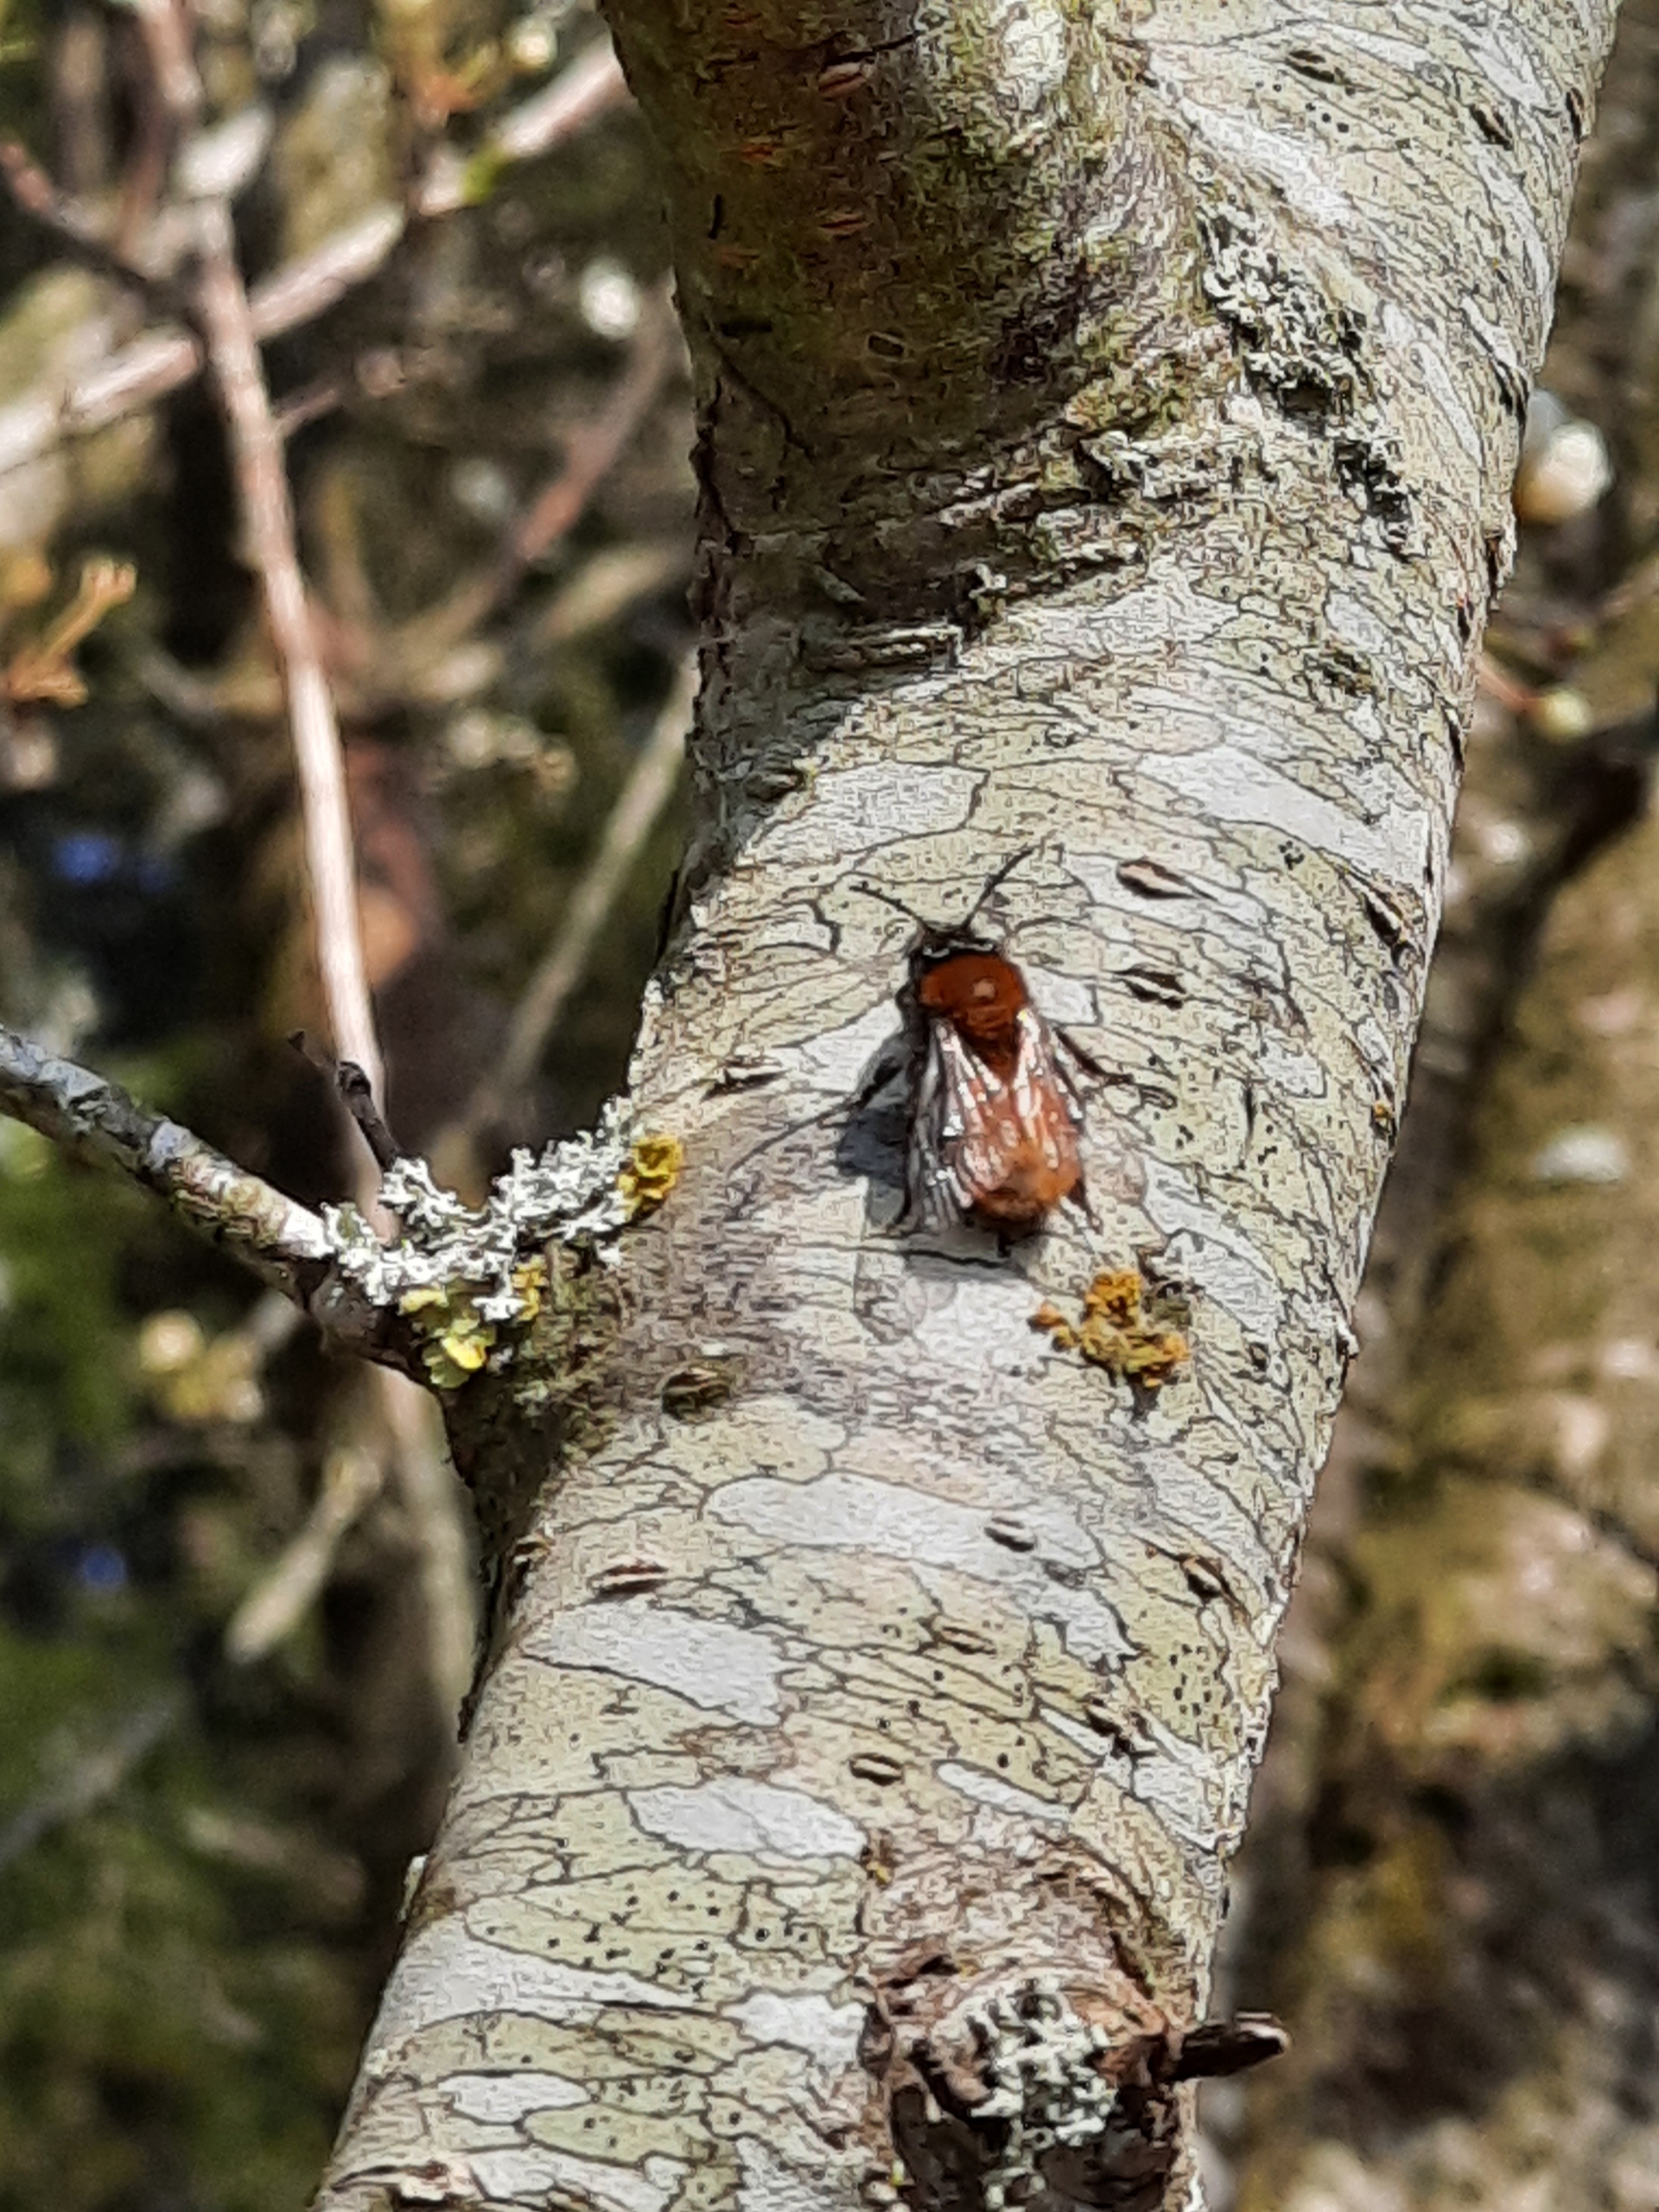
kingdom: Animalia
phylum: Arthropoda
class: Insecta
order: Hymenoptera
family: Andrenidae
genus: Andrena
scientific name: Andrena fulva
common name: Rødpelset jordbi
